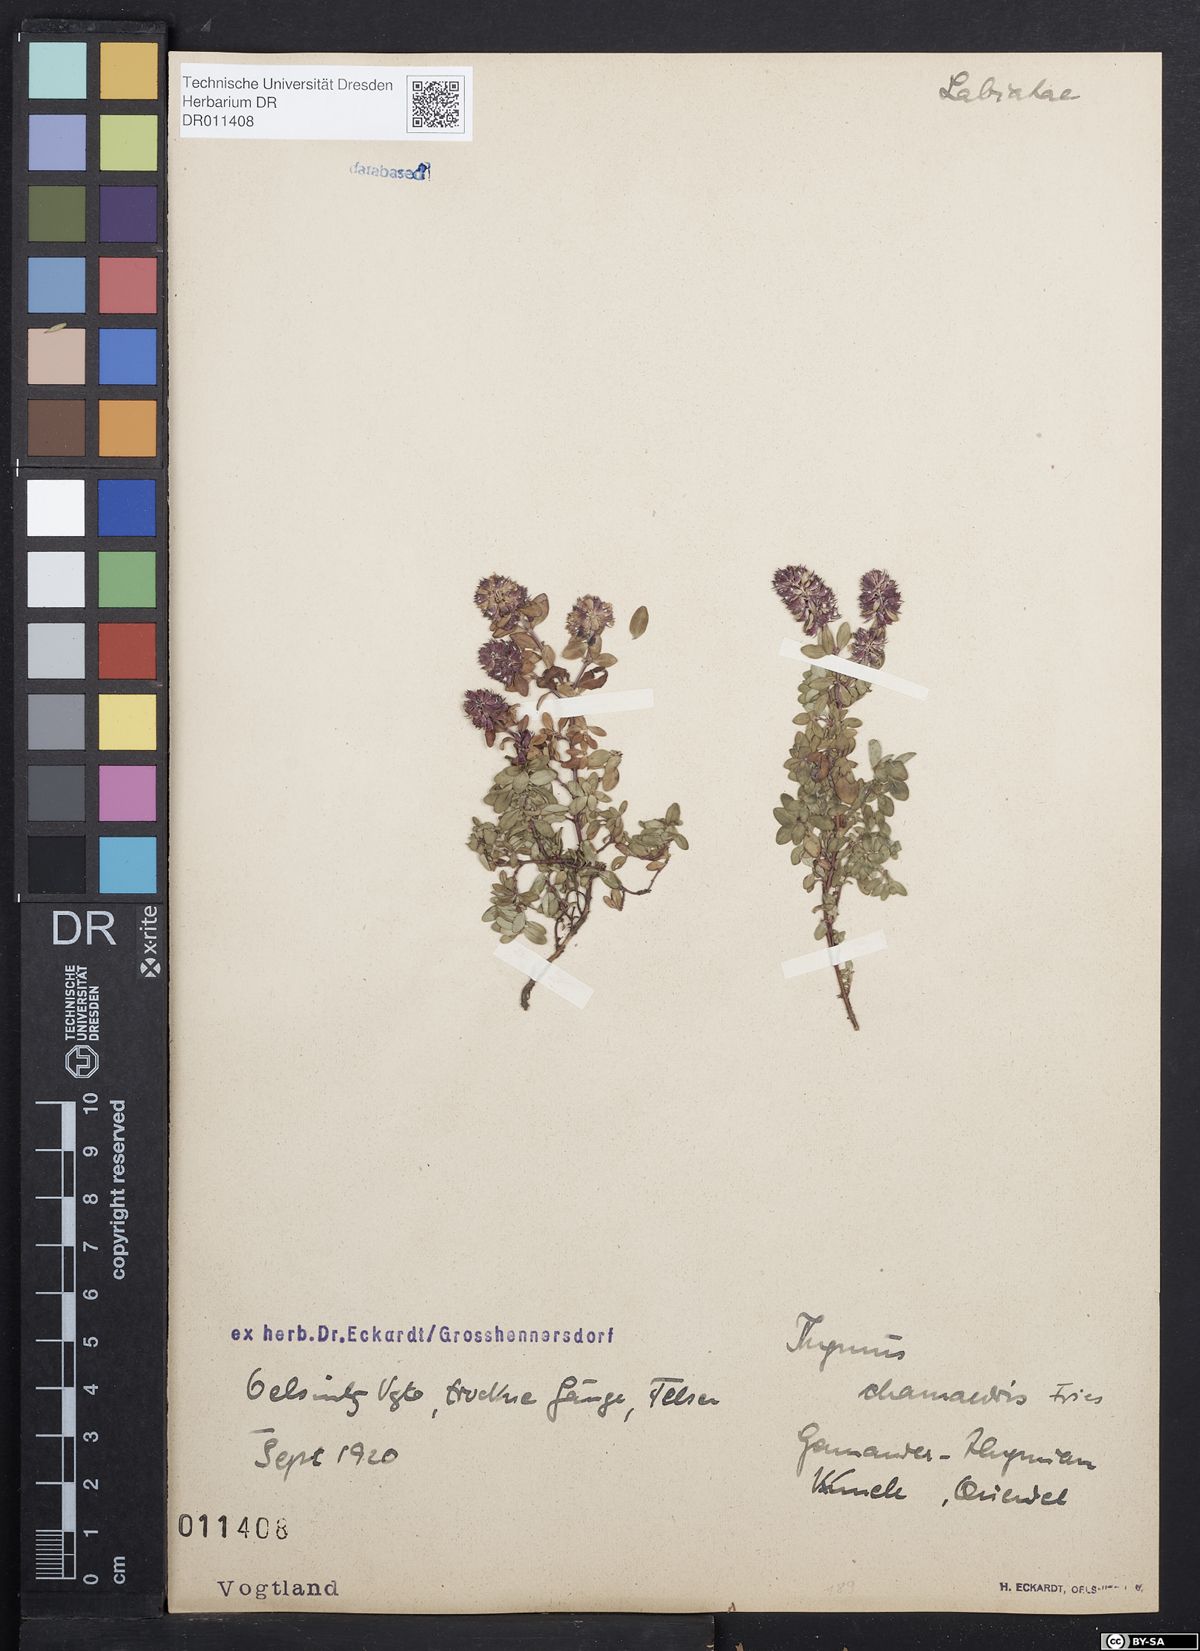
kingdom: Plantae
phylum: Tracheophyta
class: Magnoliopsida
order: Lamiales
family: Lamiaceae
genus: Thymus
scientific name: Thymus pulegioides
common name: Large thyme
